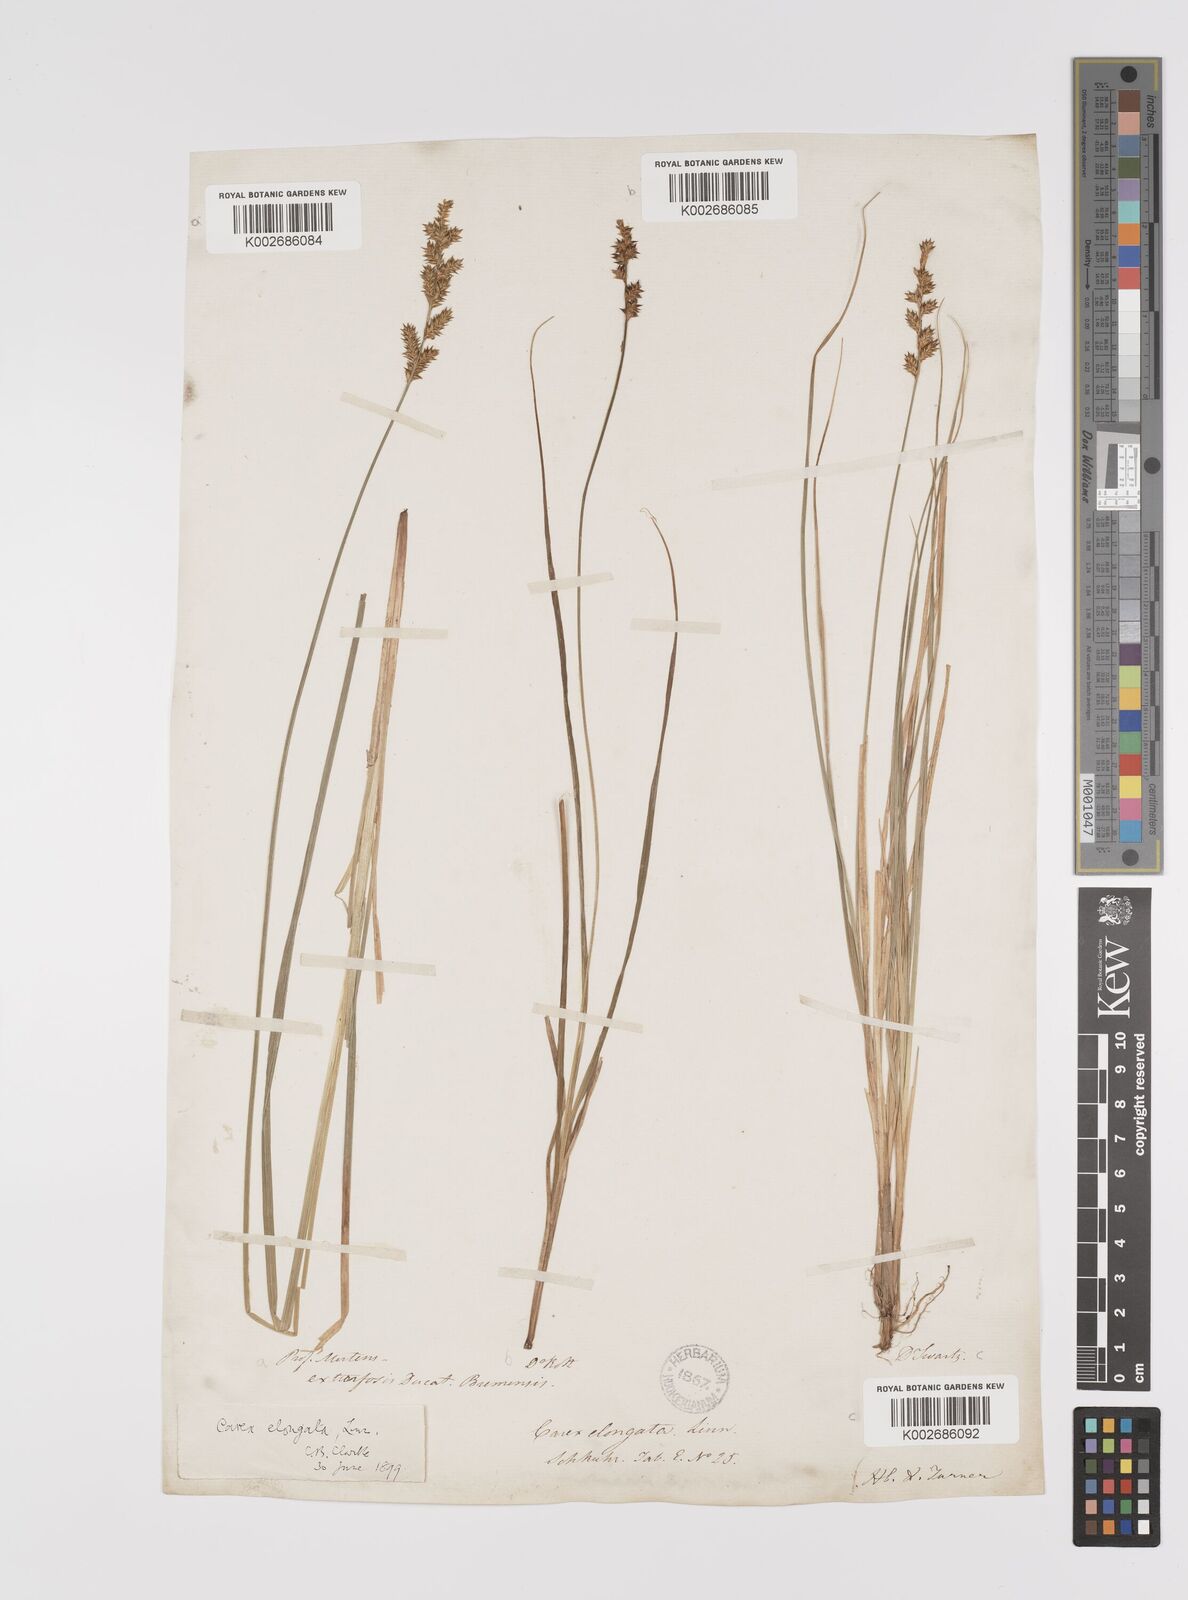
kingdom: Plantae
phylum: Tracheophyta
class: Liliopsida
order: Poales
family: Cyperaceae
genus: Carex
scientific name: Carex elongata
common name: Elongated sedge
